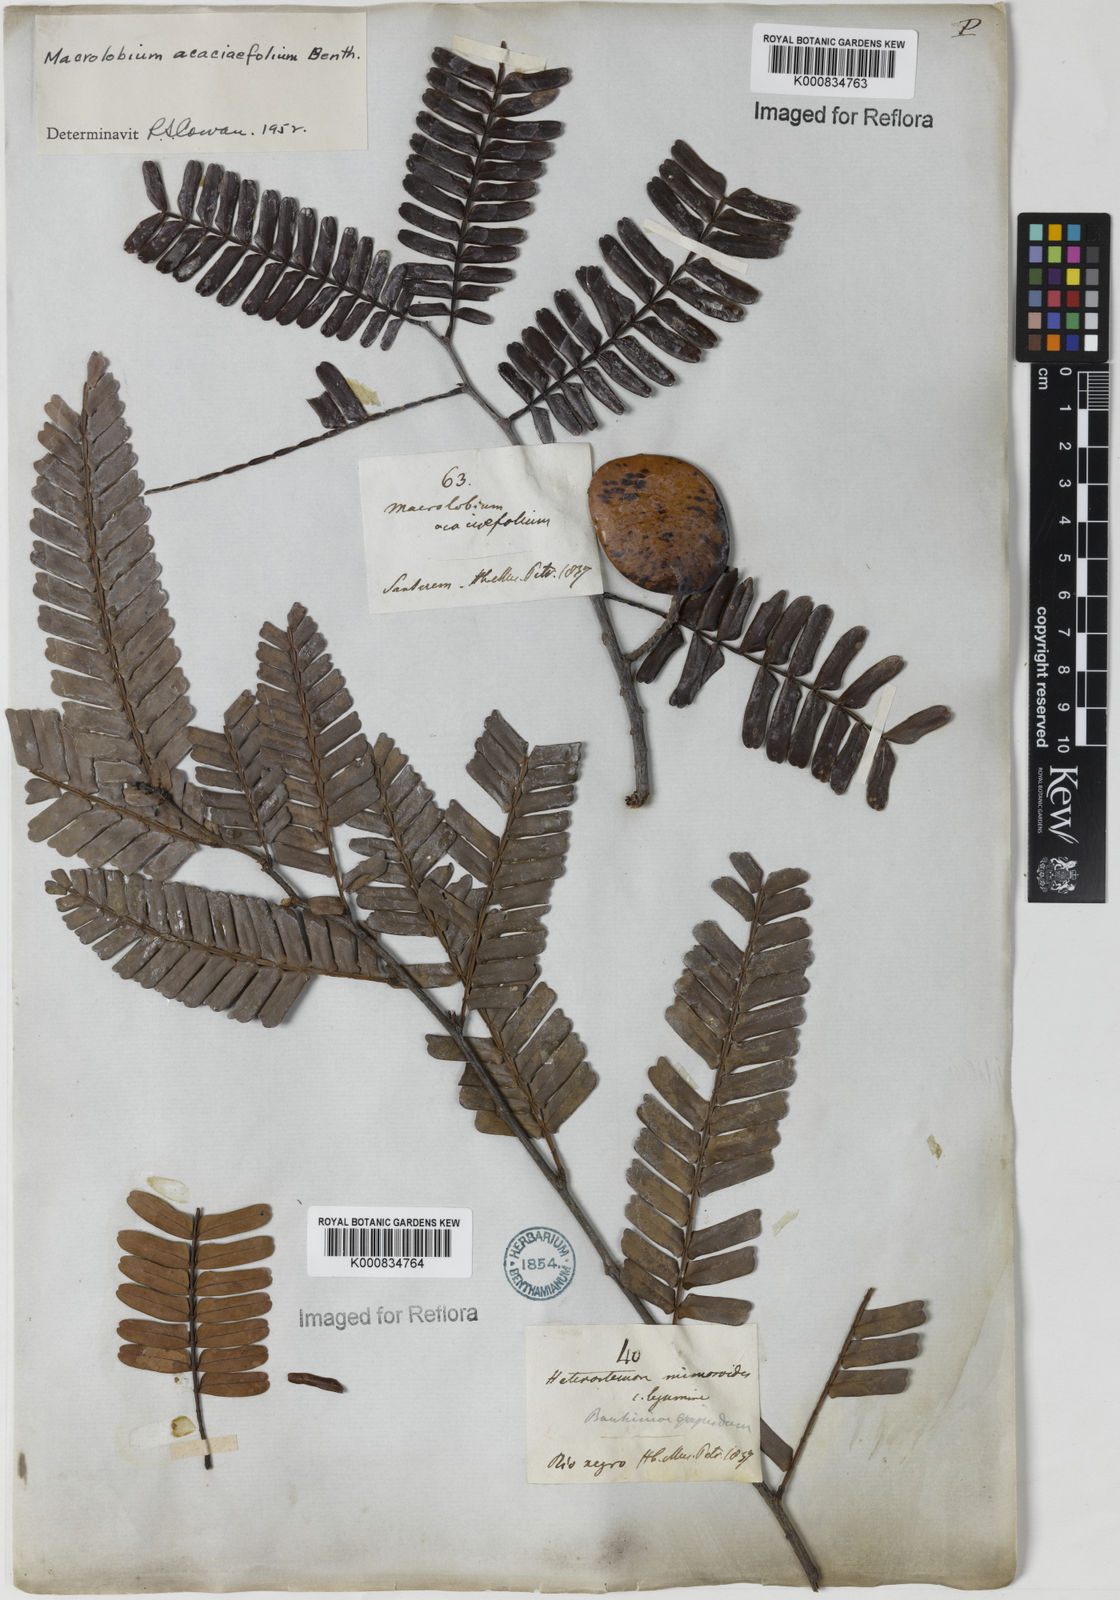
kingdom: Plantae
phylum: Tracheophyta
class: Magnoliopsida
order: Fabales
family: Fabaceae
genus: Heterostemon
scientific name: Heterostemon mimosoides
